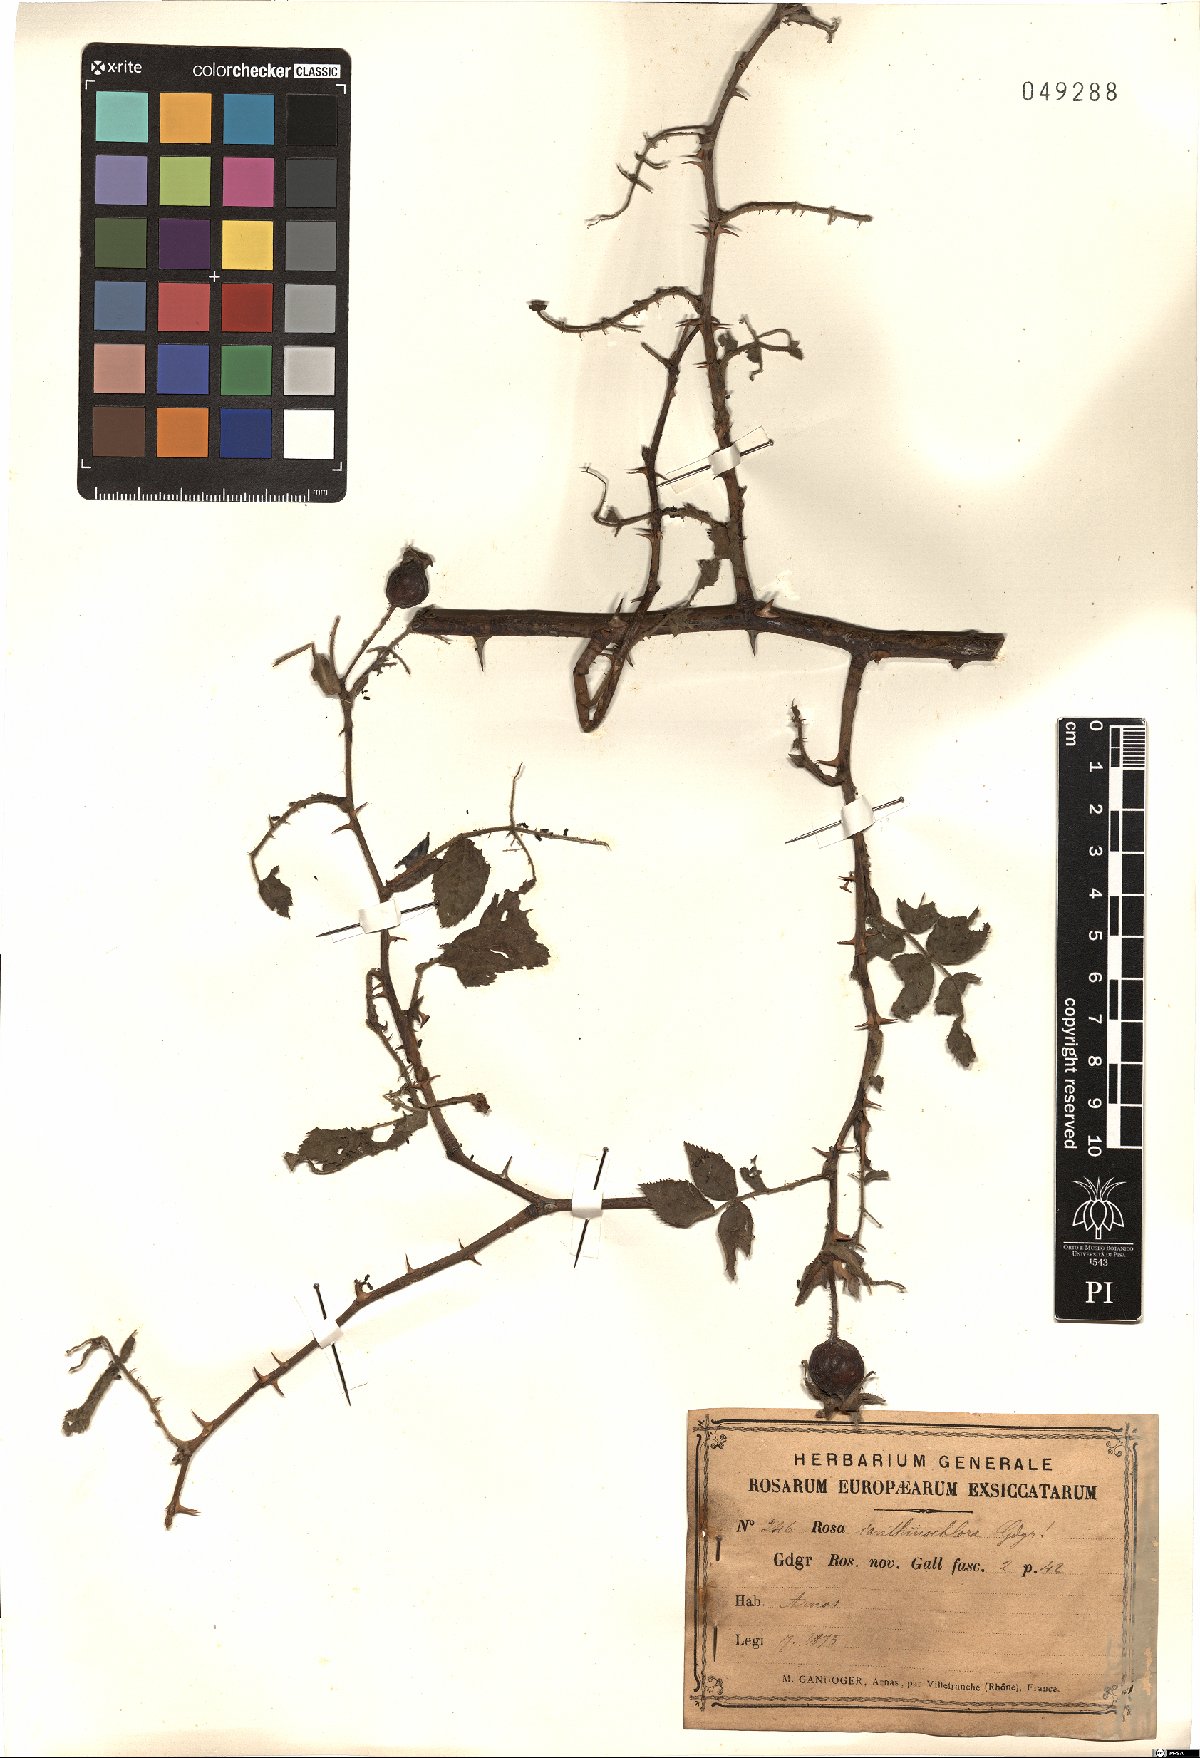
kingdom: Plantae
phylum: Tracheophyta
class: Magnoliopsida
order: Rosales
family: Rosaceae
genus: Rosa
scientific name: Rosa ianthinochlora
